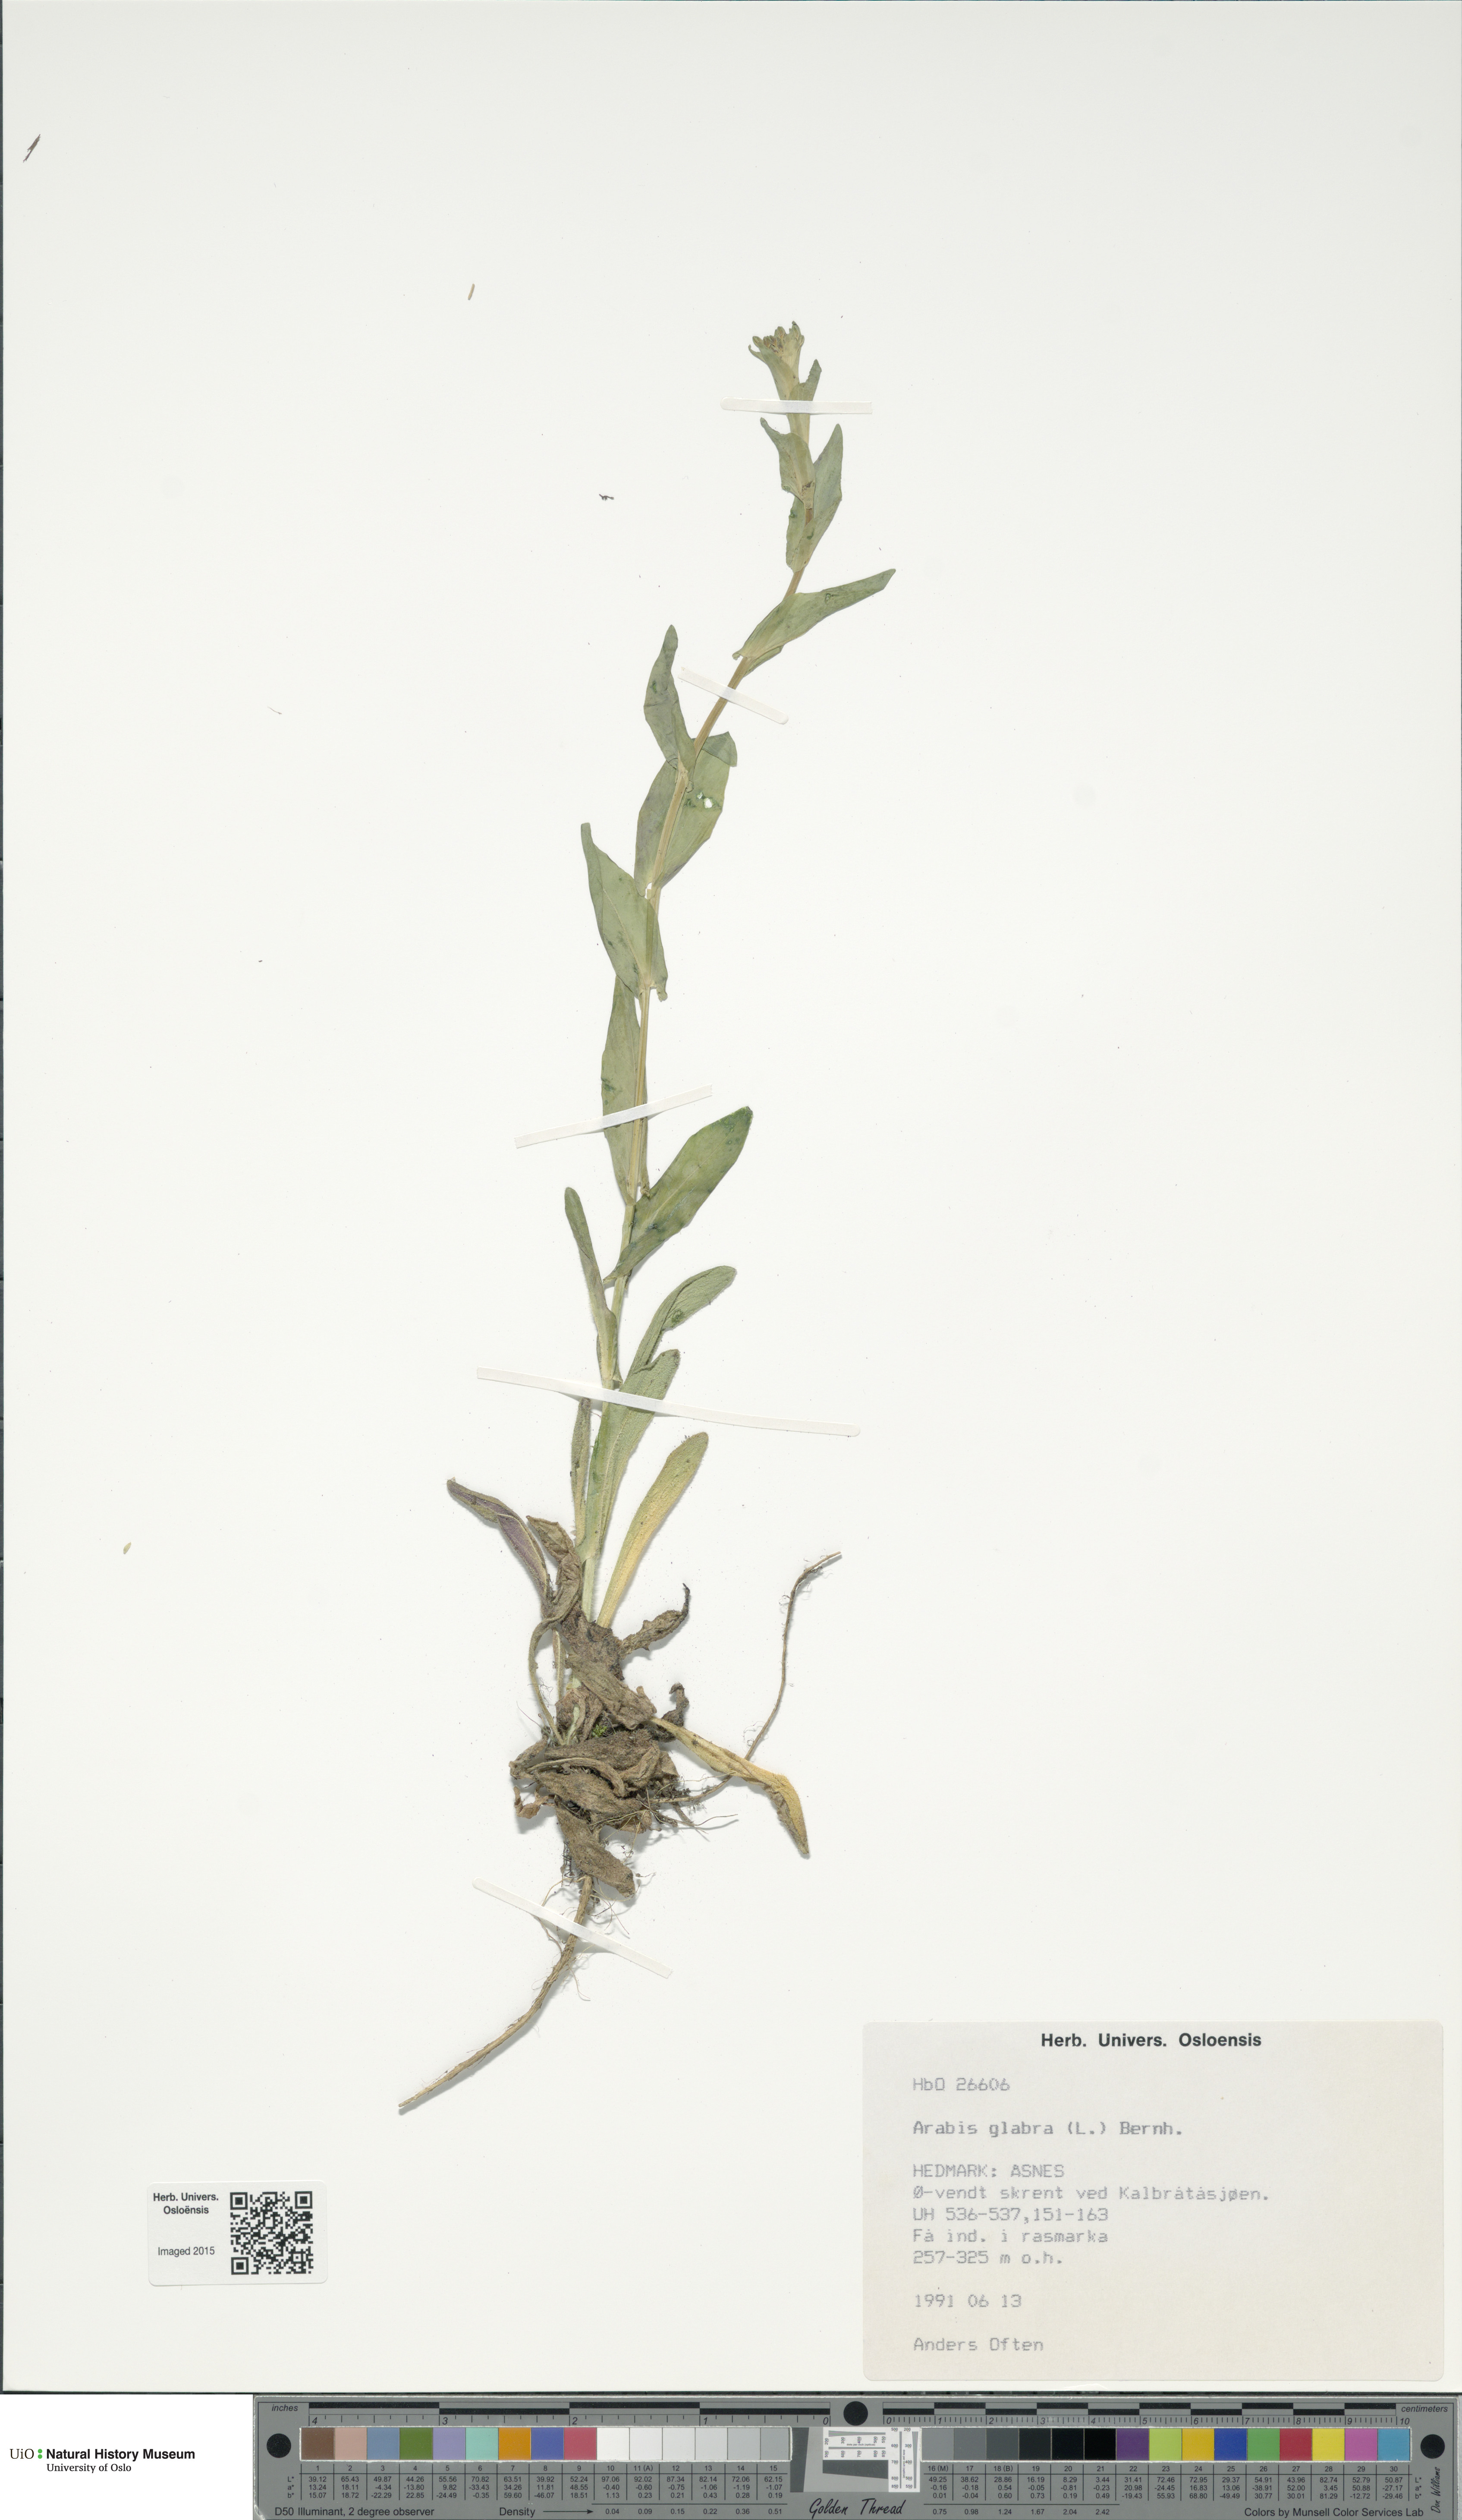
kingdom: Plantae
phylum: Tracheophyta
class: Magnoliopsida
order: Brassicales
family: Brassicaceae
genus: Turritis
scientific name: Turritis glabra
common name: Tower rockcress
